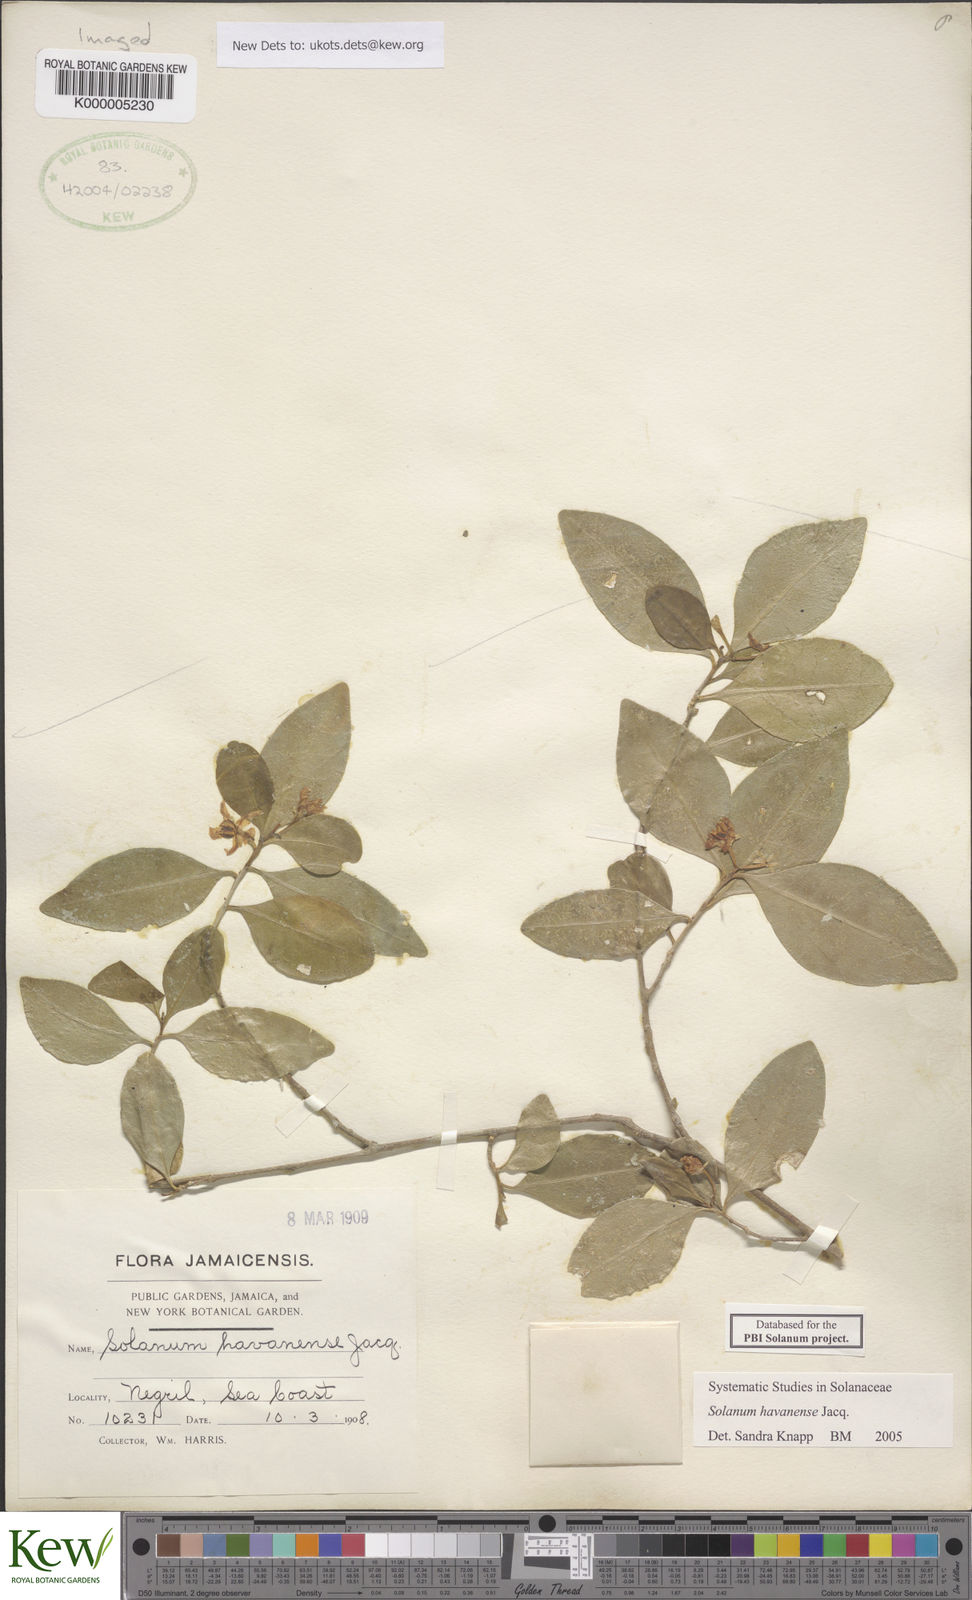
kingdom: Plantae
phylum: Tracheophyta
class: Magnoliopsida
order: Solanales
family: Solanaceae
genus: Solanum
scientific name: Solanum havanense
